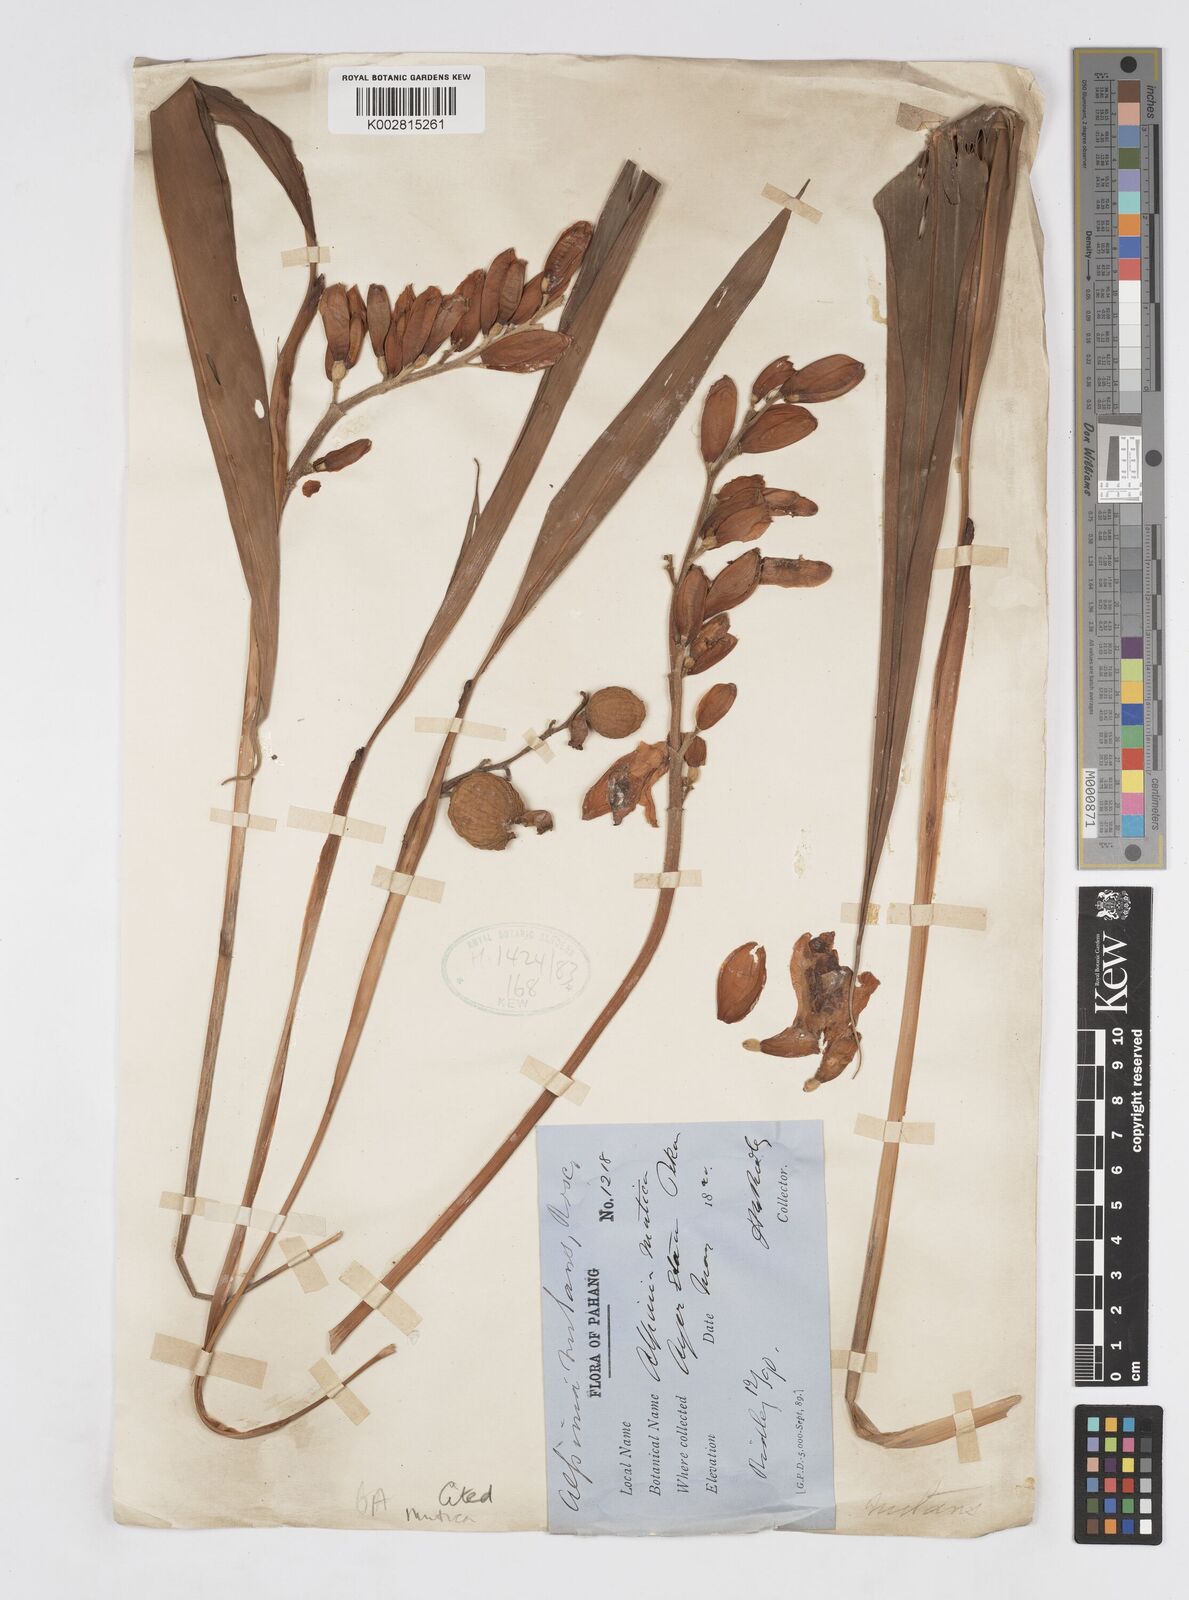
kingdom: Plantae
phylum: Tracheophyta
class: Liliopsida
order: Zingiberales
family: Zingiberaceae
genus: Alpinia
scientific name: Alpinia mutica
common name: Small shell ginger
